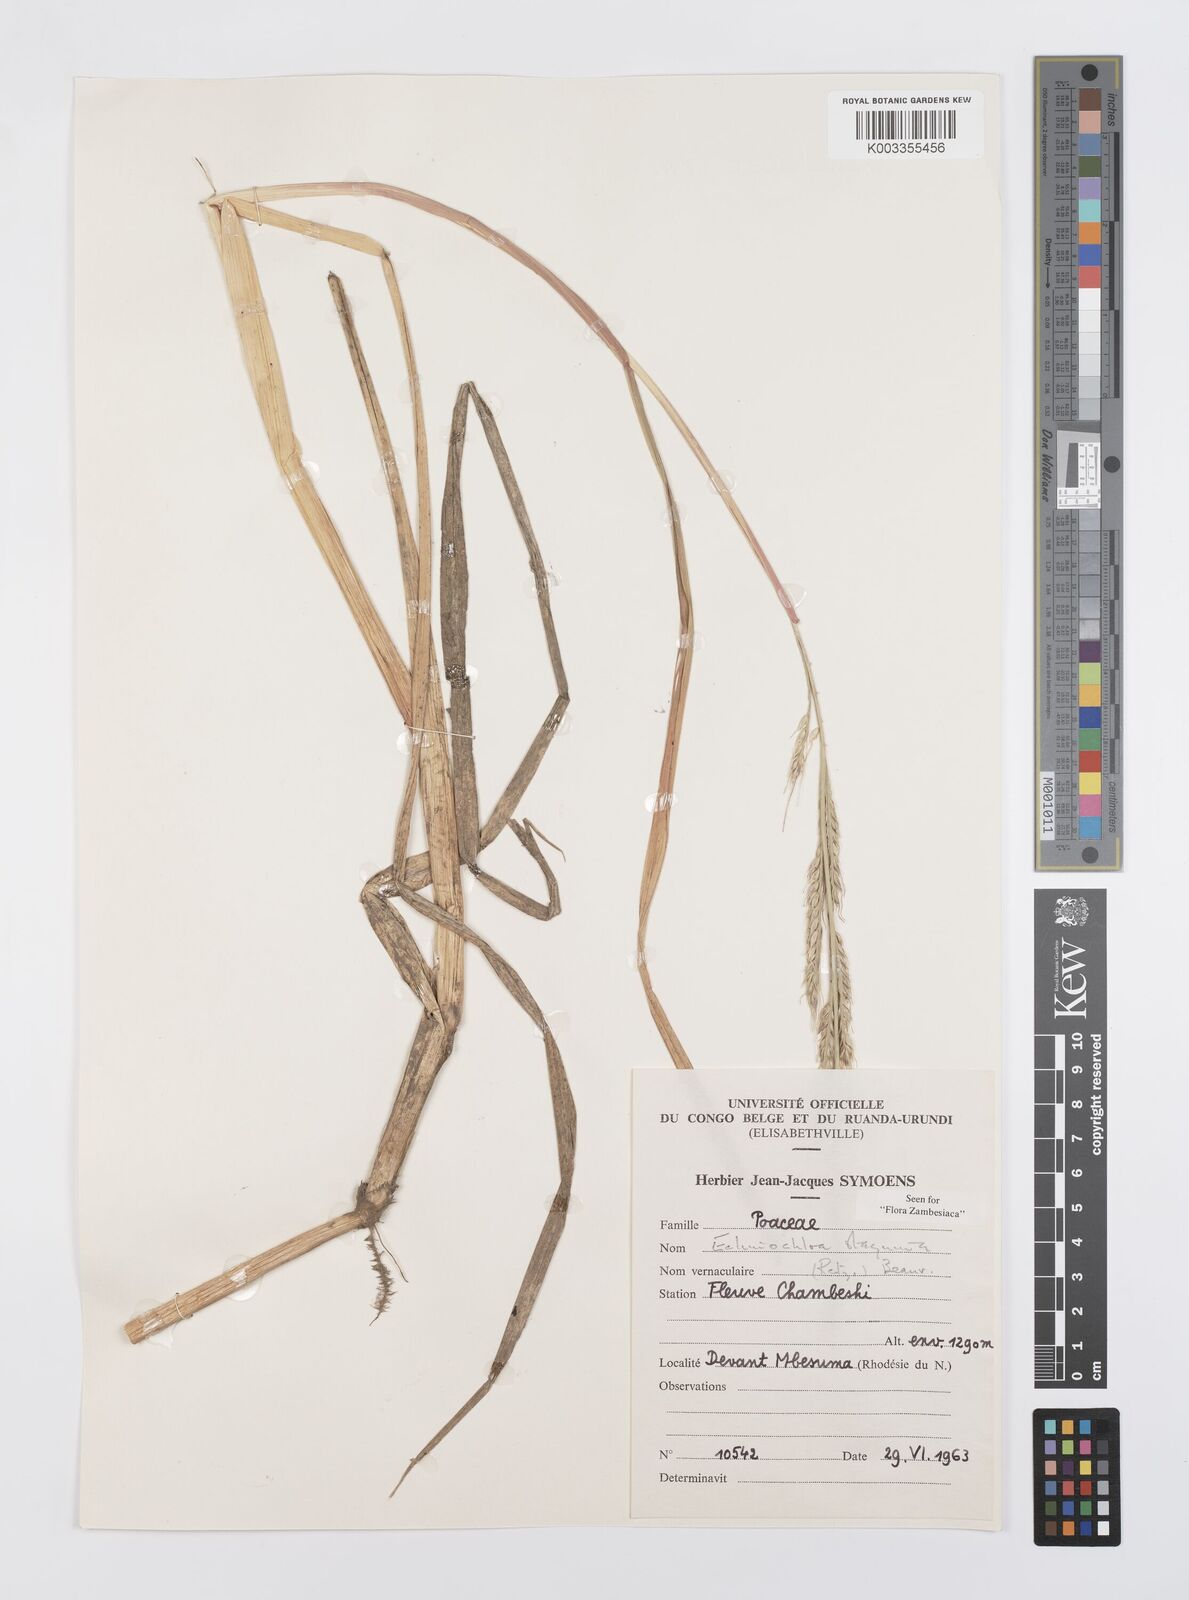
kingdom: Plantae
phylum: Tracheophyta
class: Liliopsida
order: Poales
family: Poaceae
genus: Echinochloa
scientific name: Echinochloa stagnina
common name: Burgu grass
